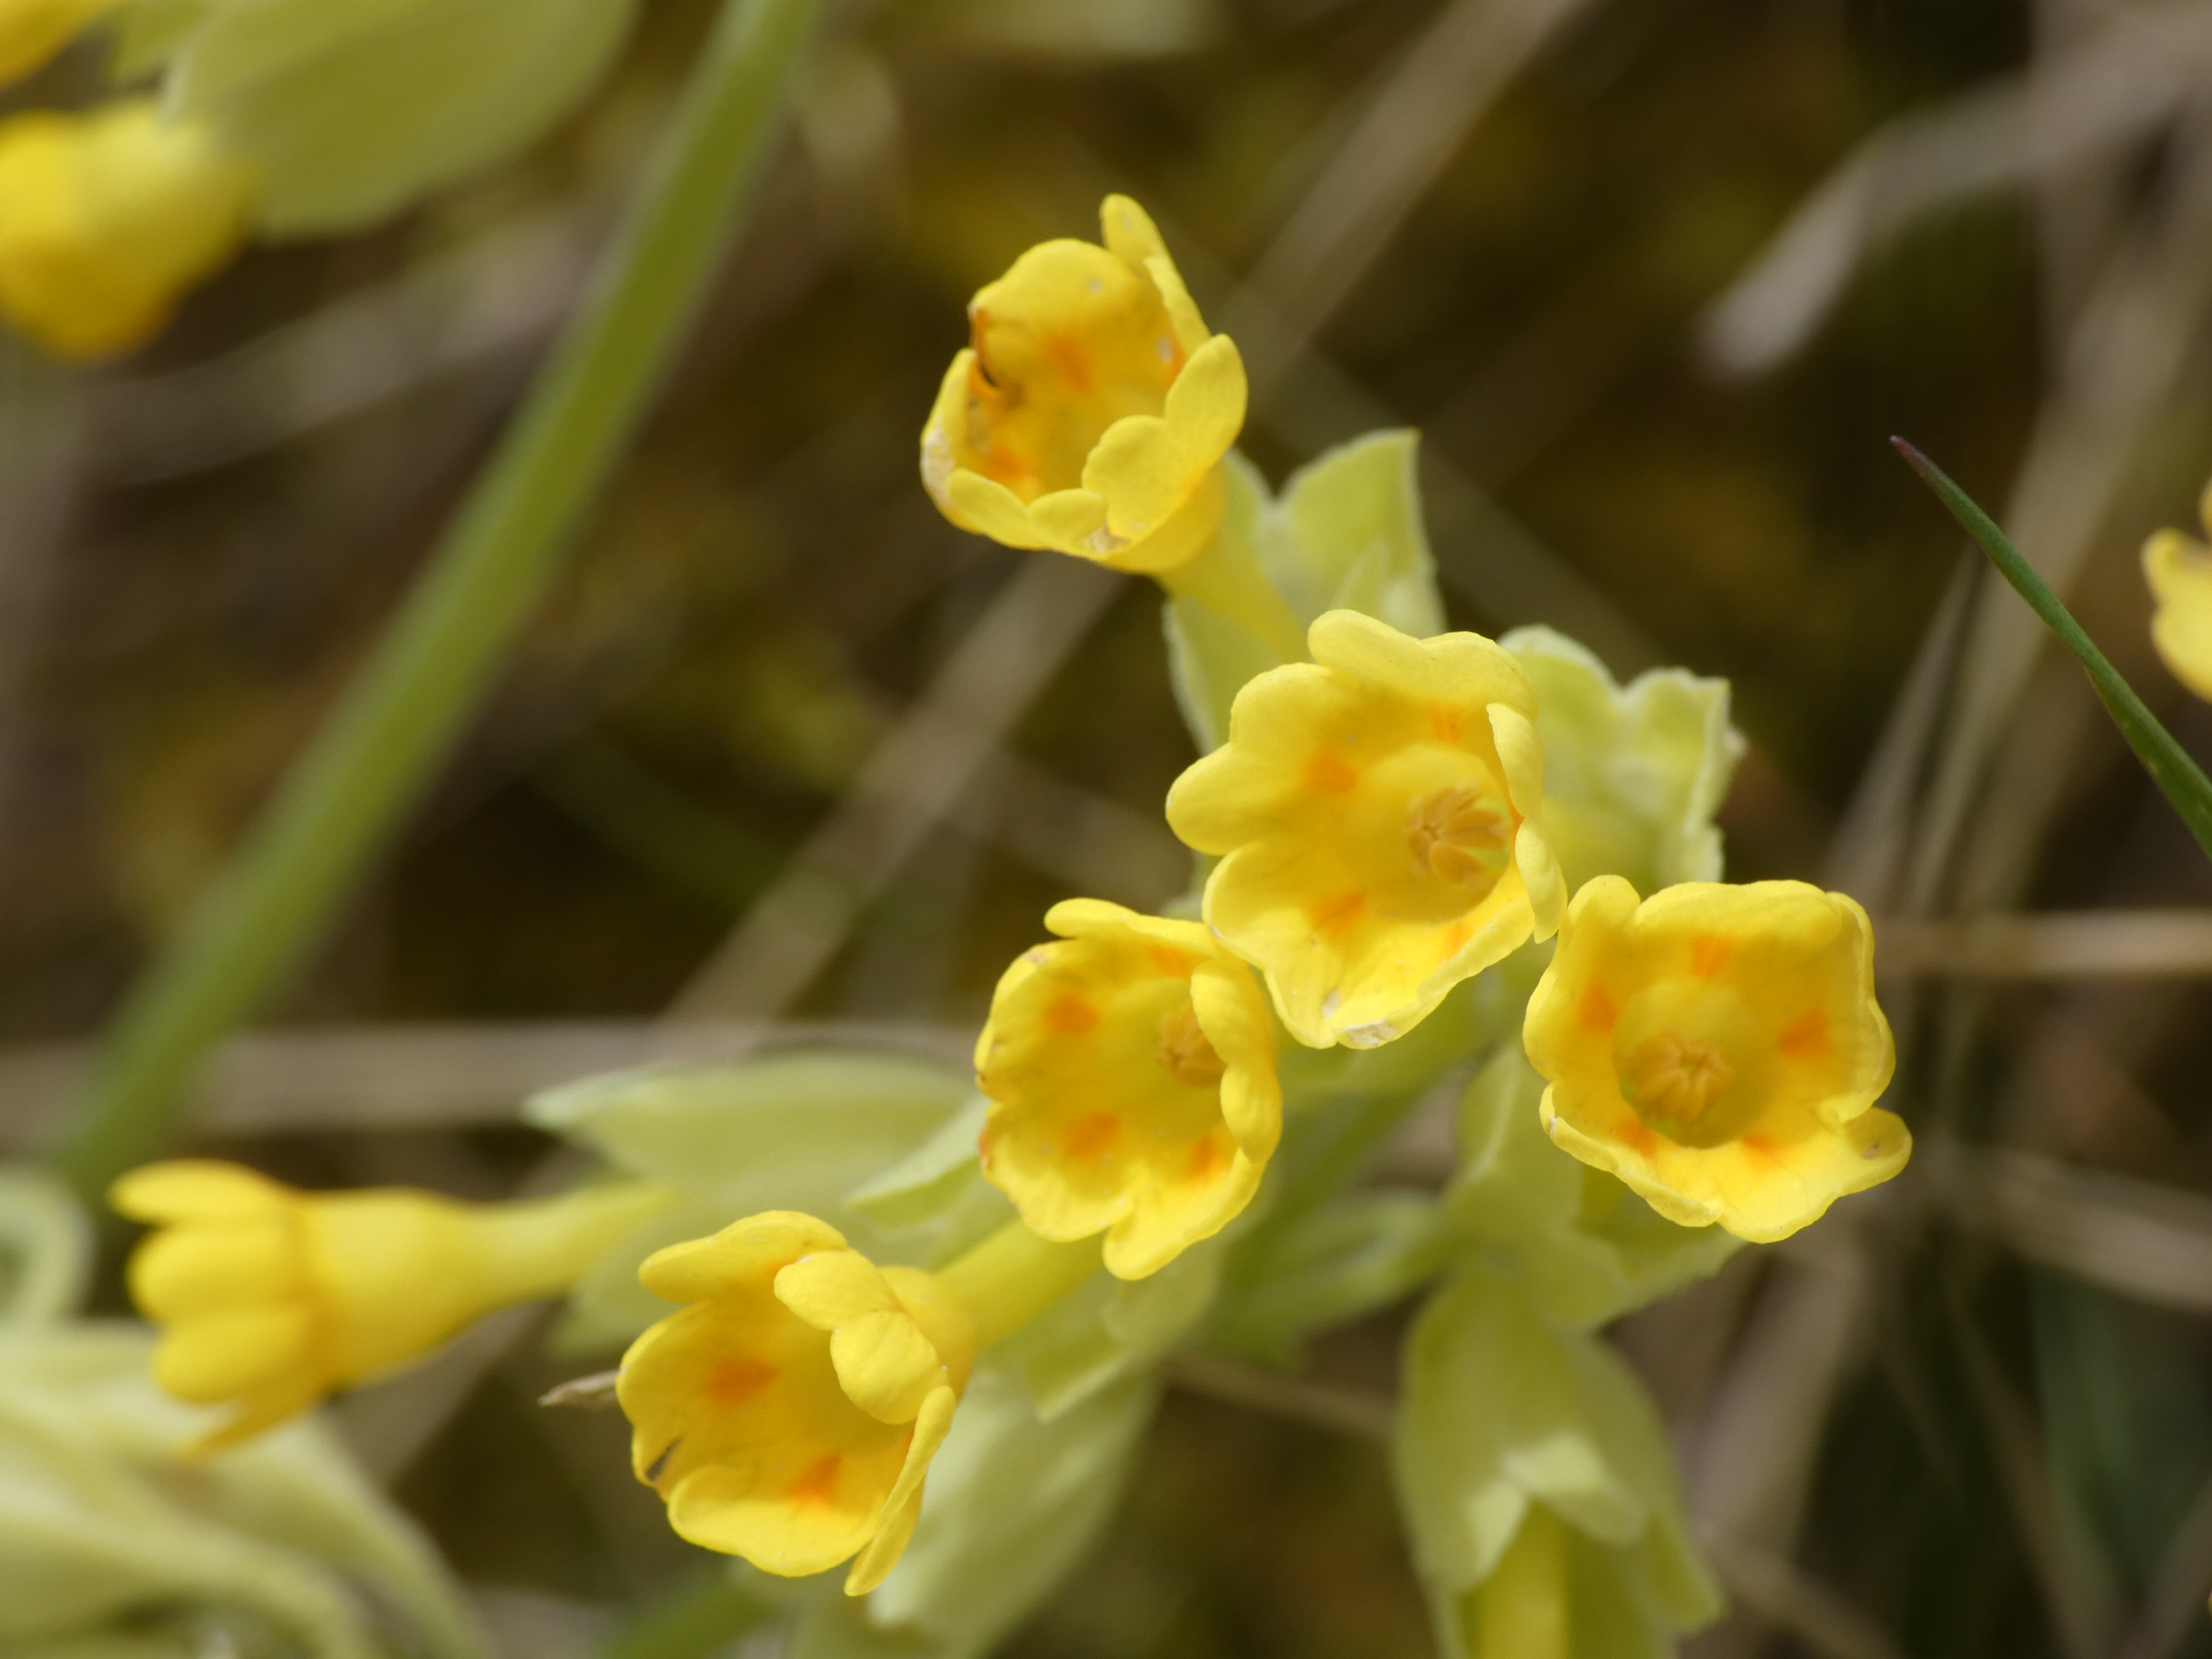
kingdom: Plantae
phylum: Tracheophyta
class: Magnoliopsida
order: Ericales
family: Primulaceae
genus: Primula
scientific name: Primula veris
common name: Hulkravet kodriver
